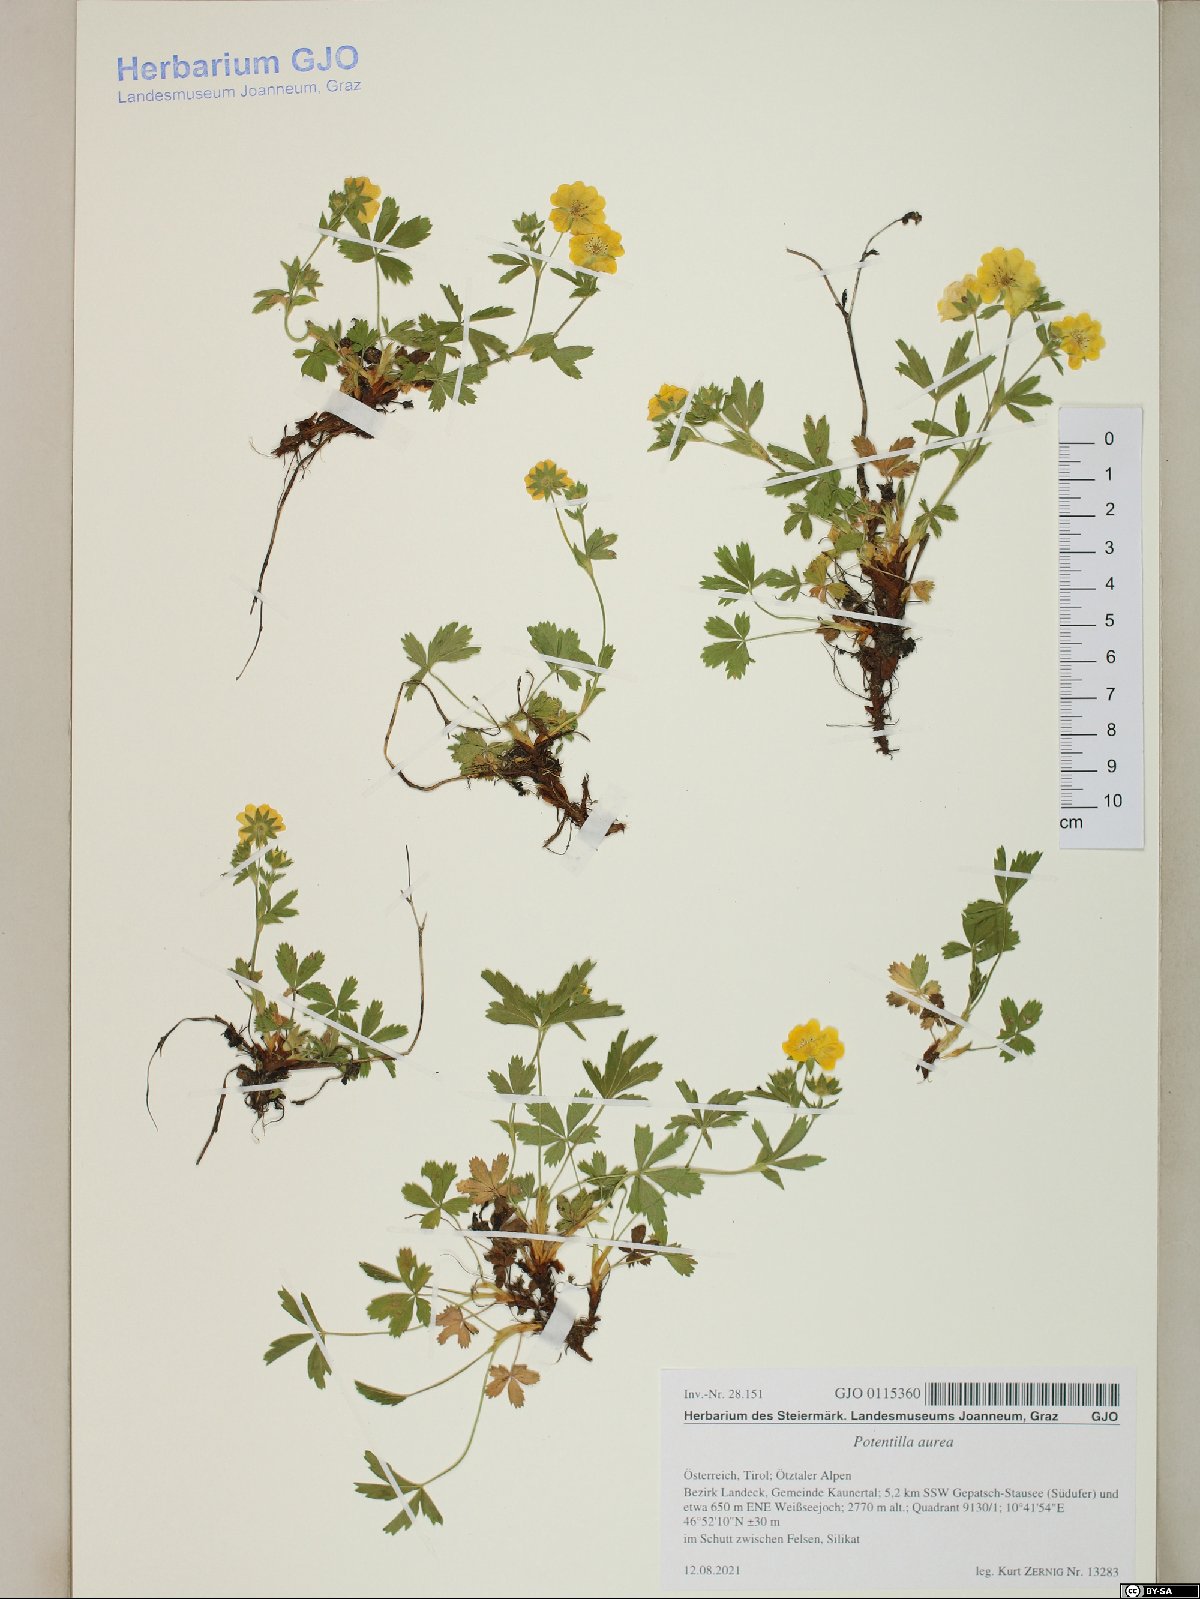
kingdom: Plantae
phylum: Tracheophyta
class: Magnoliopsida
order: Rosales
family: Rosaceae
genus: Potentilla
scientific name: Potentilla aurea
